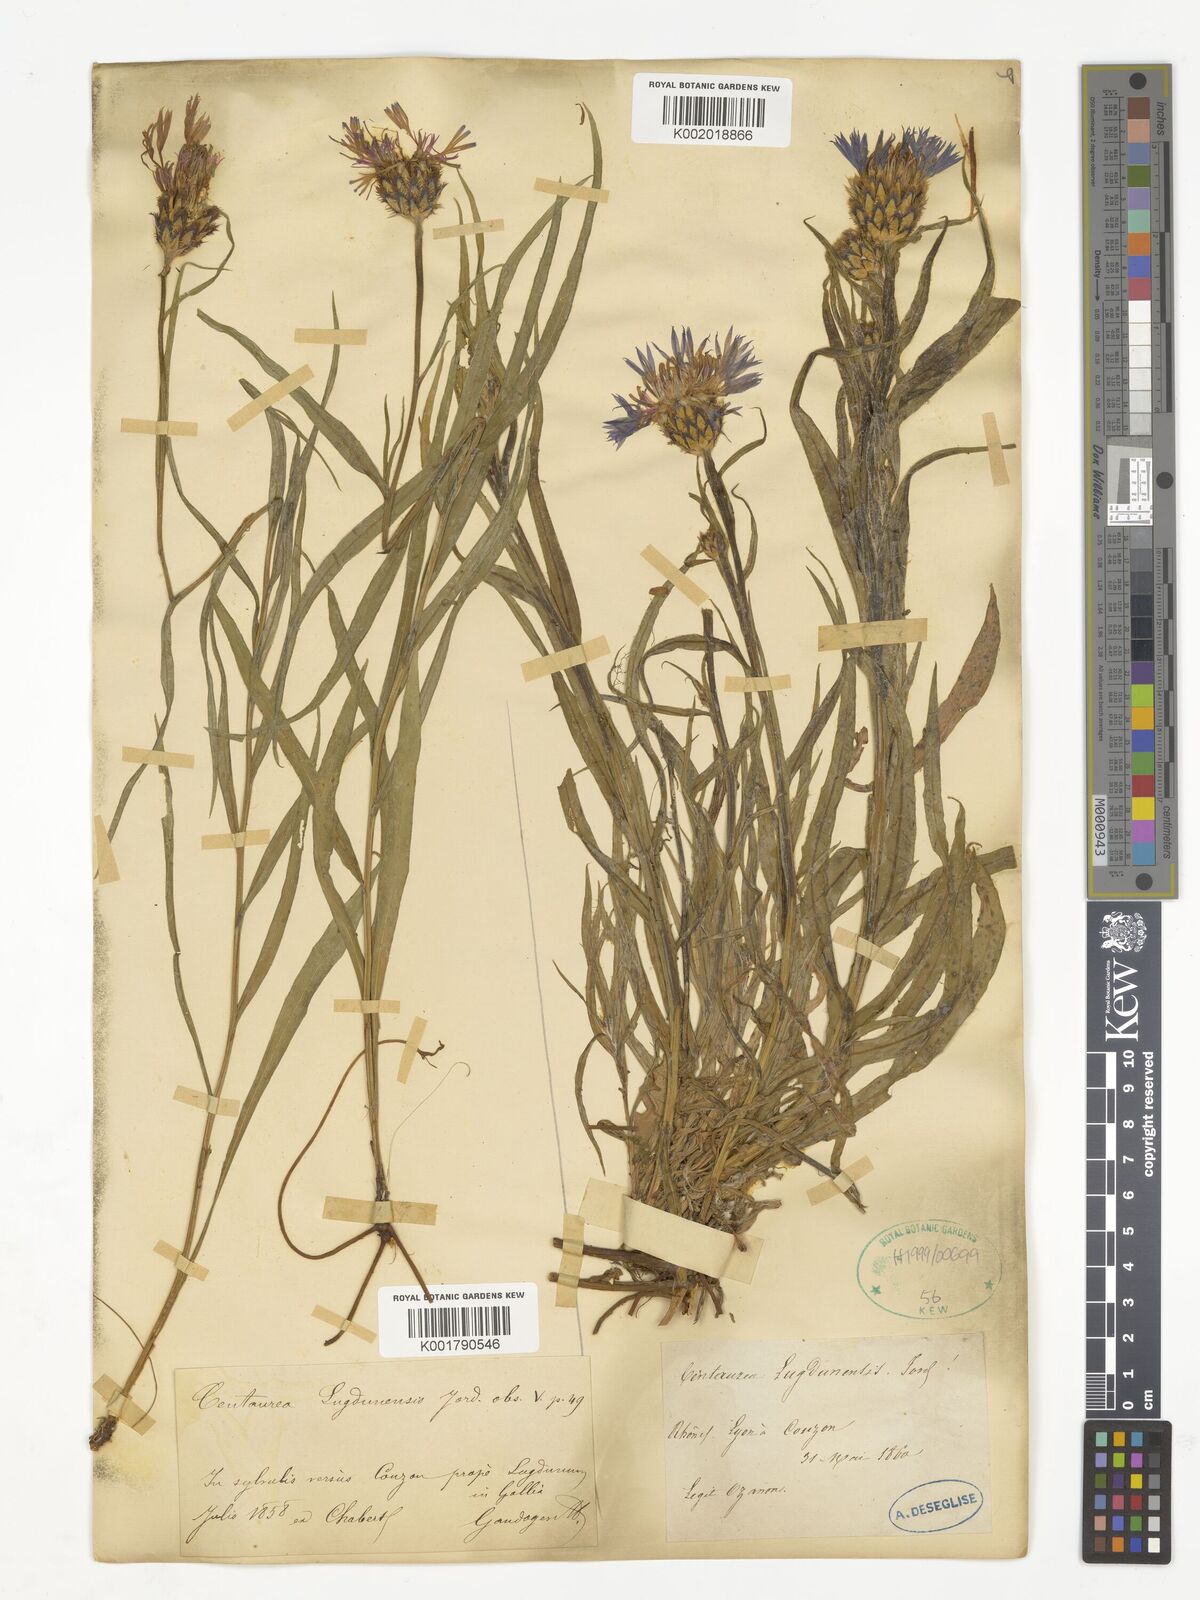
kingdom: Plantae
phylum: Tracheophyta
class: Magnoliopsida
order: Asterales
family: Asteraceae
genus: Centaurea
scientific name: Centaurea lugdunensis
